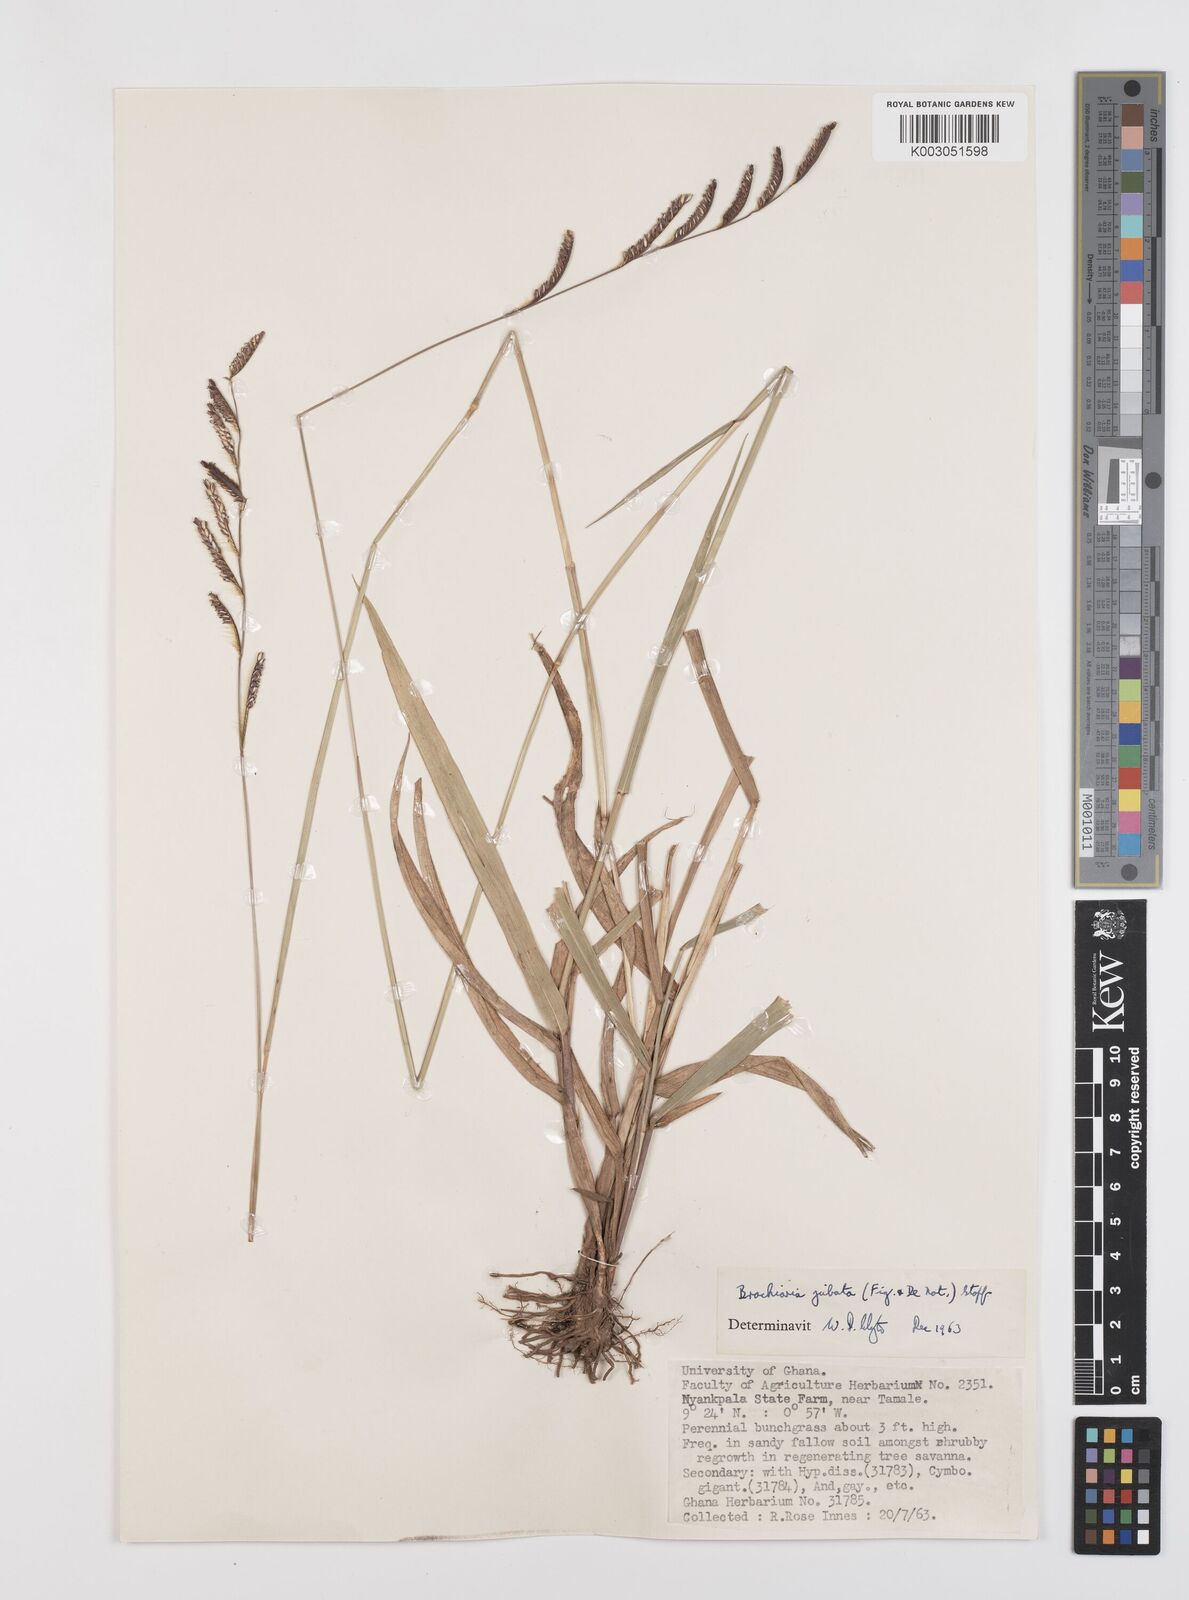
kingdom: Plantae
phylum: Tracheophyta
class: Liliopsida
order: Poales
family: Poaceae
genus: Urochloa
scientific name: Urochloa jubata
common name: Buffalograss
